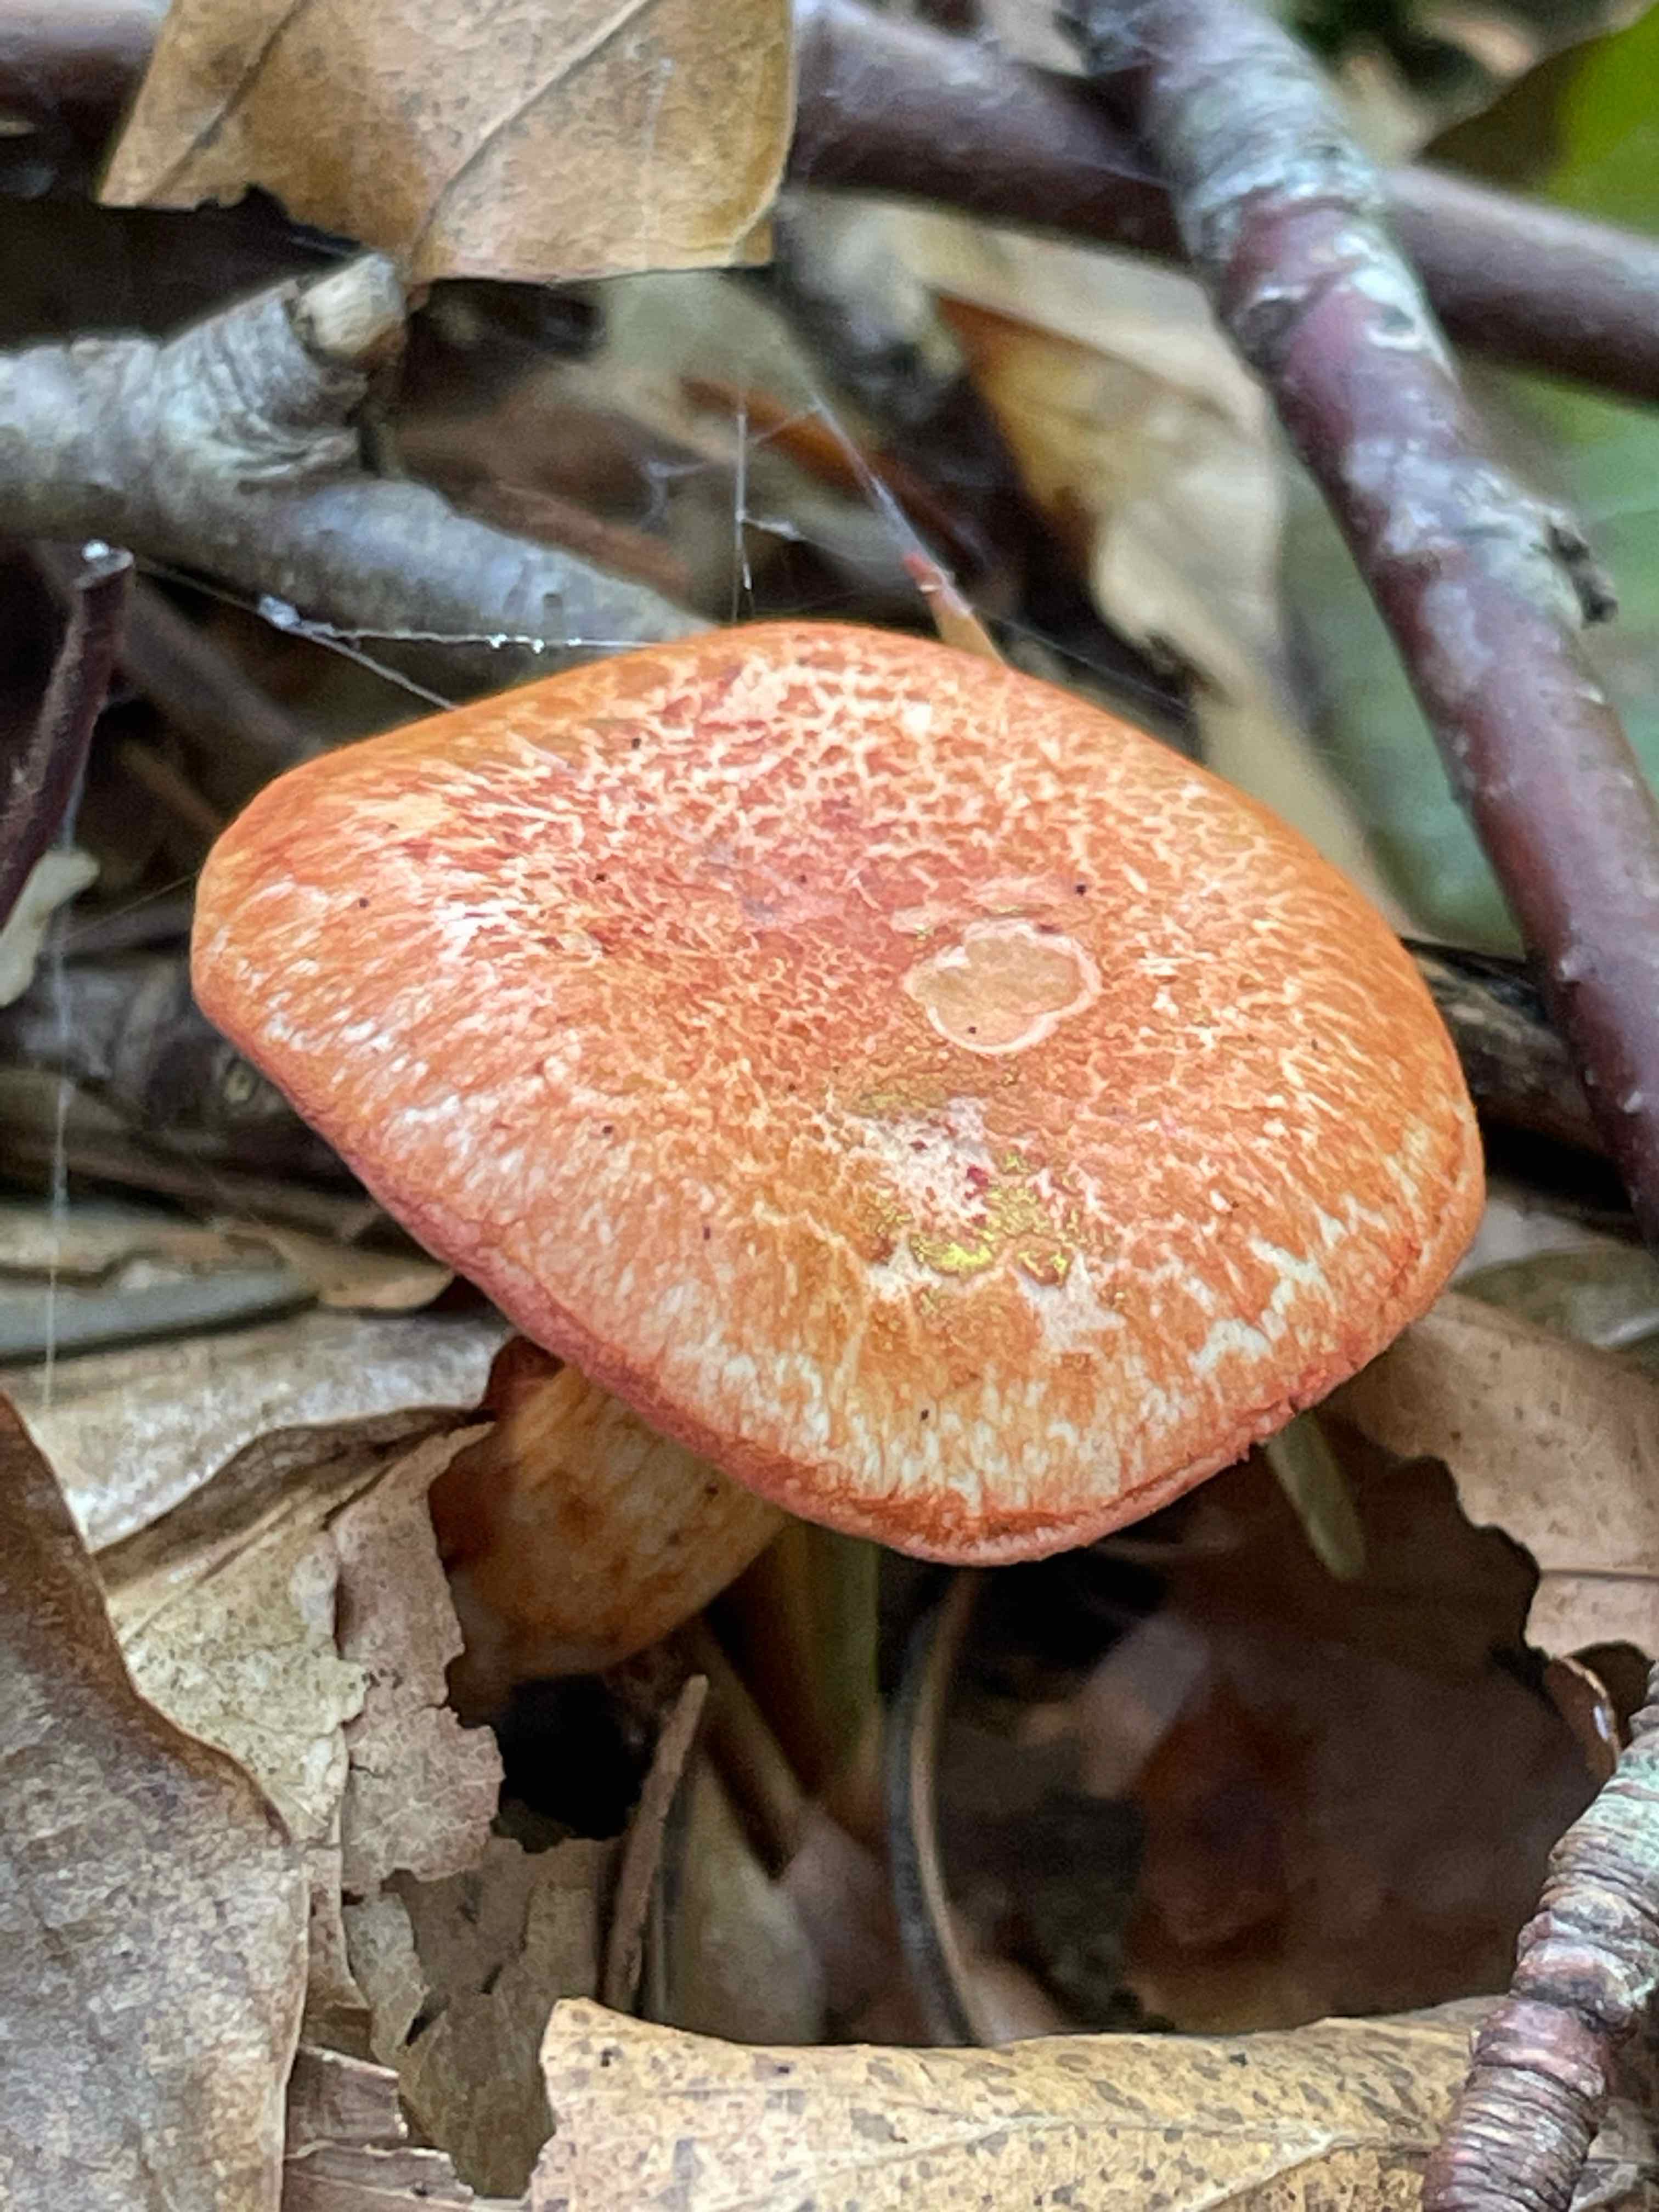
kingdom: Fungi
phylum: Basidiomycota
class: Agaricomycetes
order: Agaricales
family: Cortinariaceae
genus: Cortinarius
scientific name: Cortinarius bolaris
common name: cinnoberskællet slørhat
